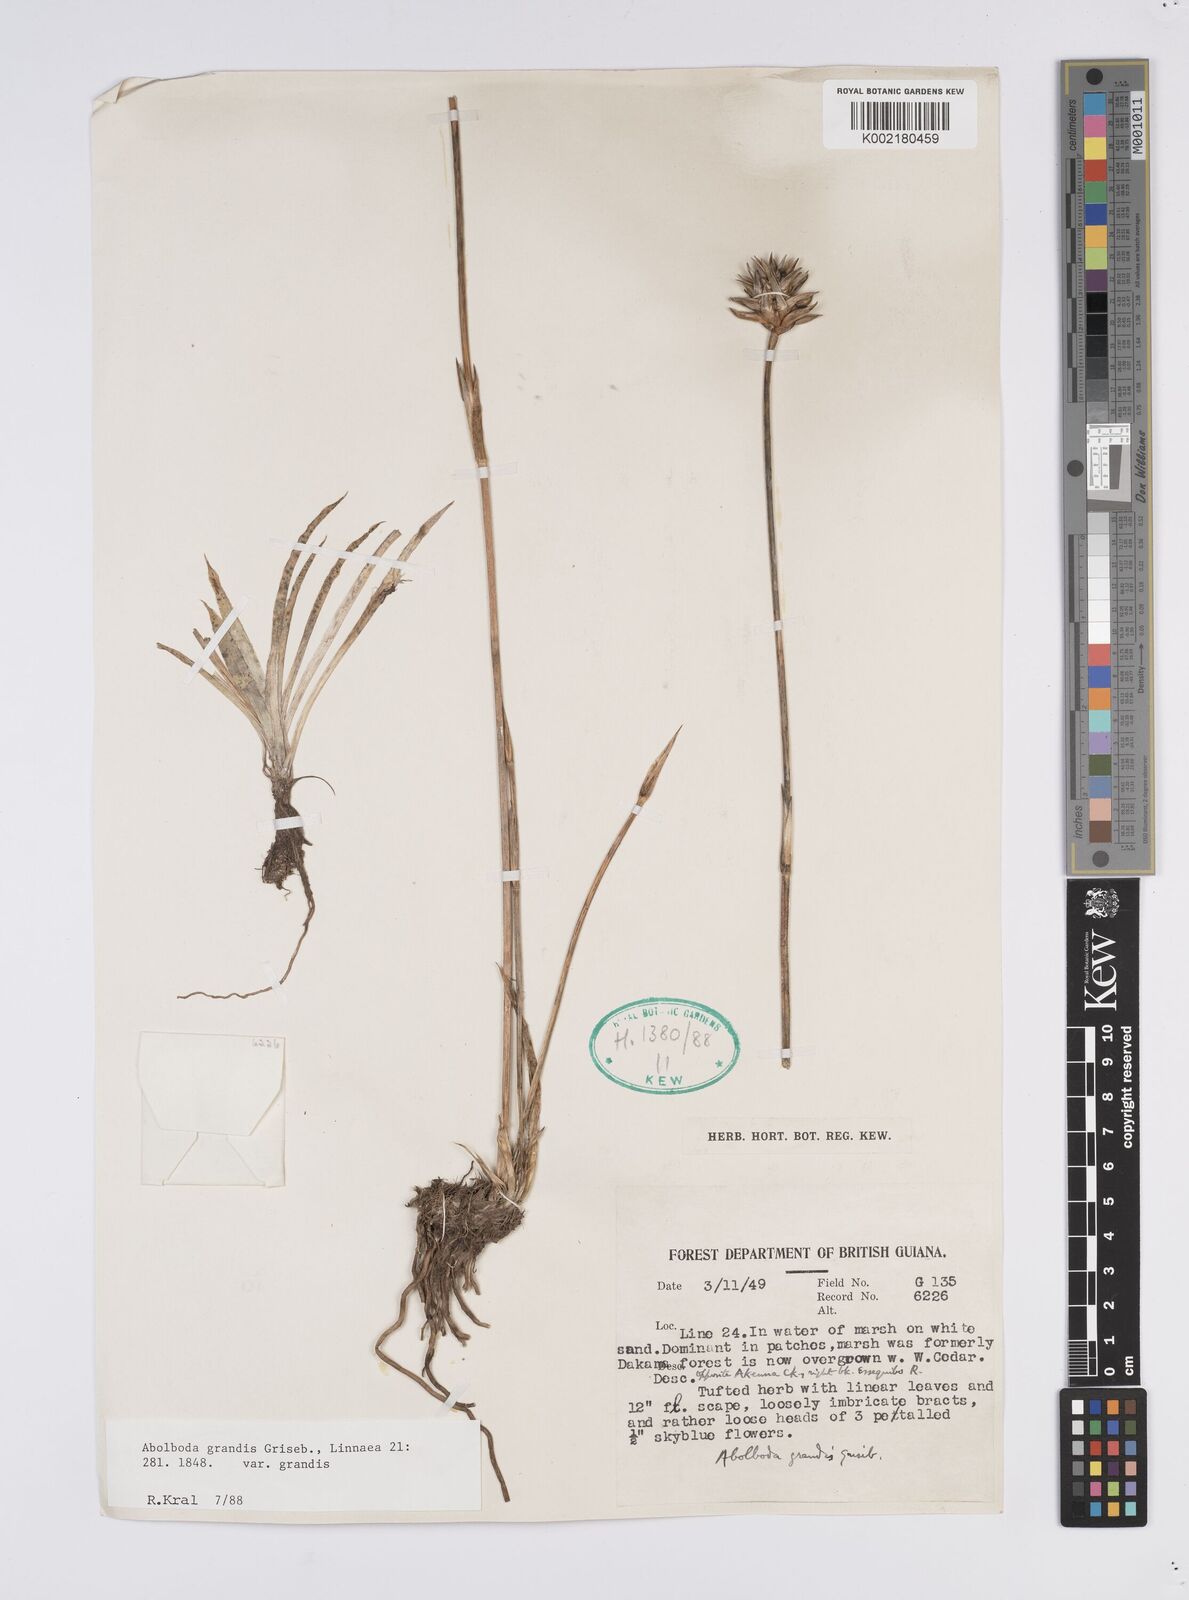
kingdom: Plantae
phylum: Tracheophyta
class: Liliopsida
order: Poales
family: Xyridaceae
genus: Abolboda
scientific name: Abolboda grandis
